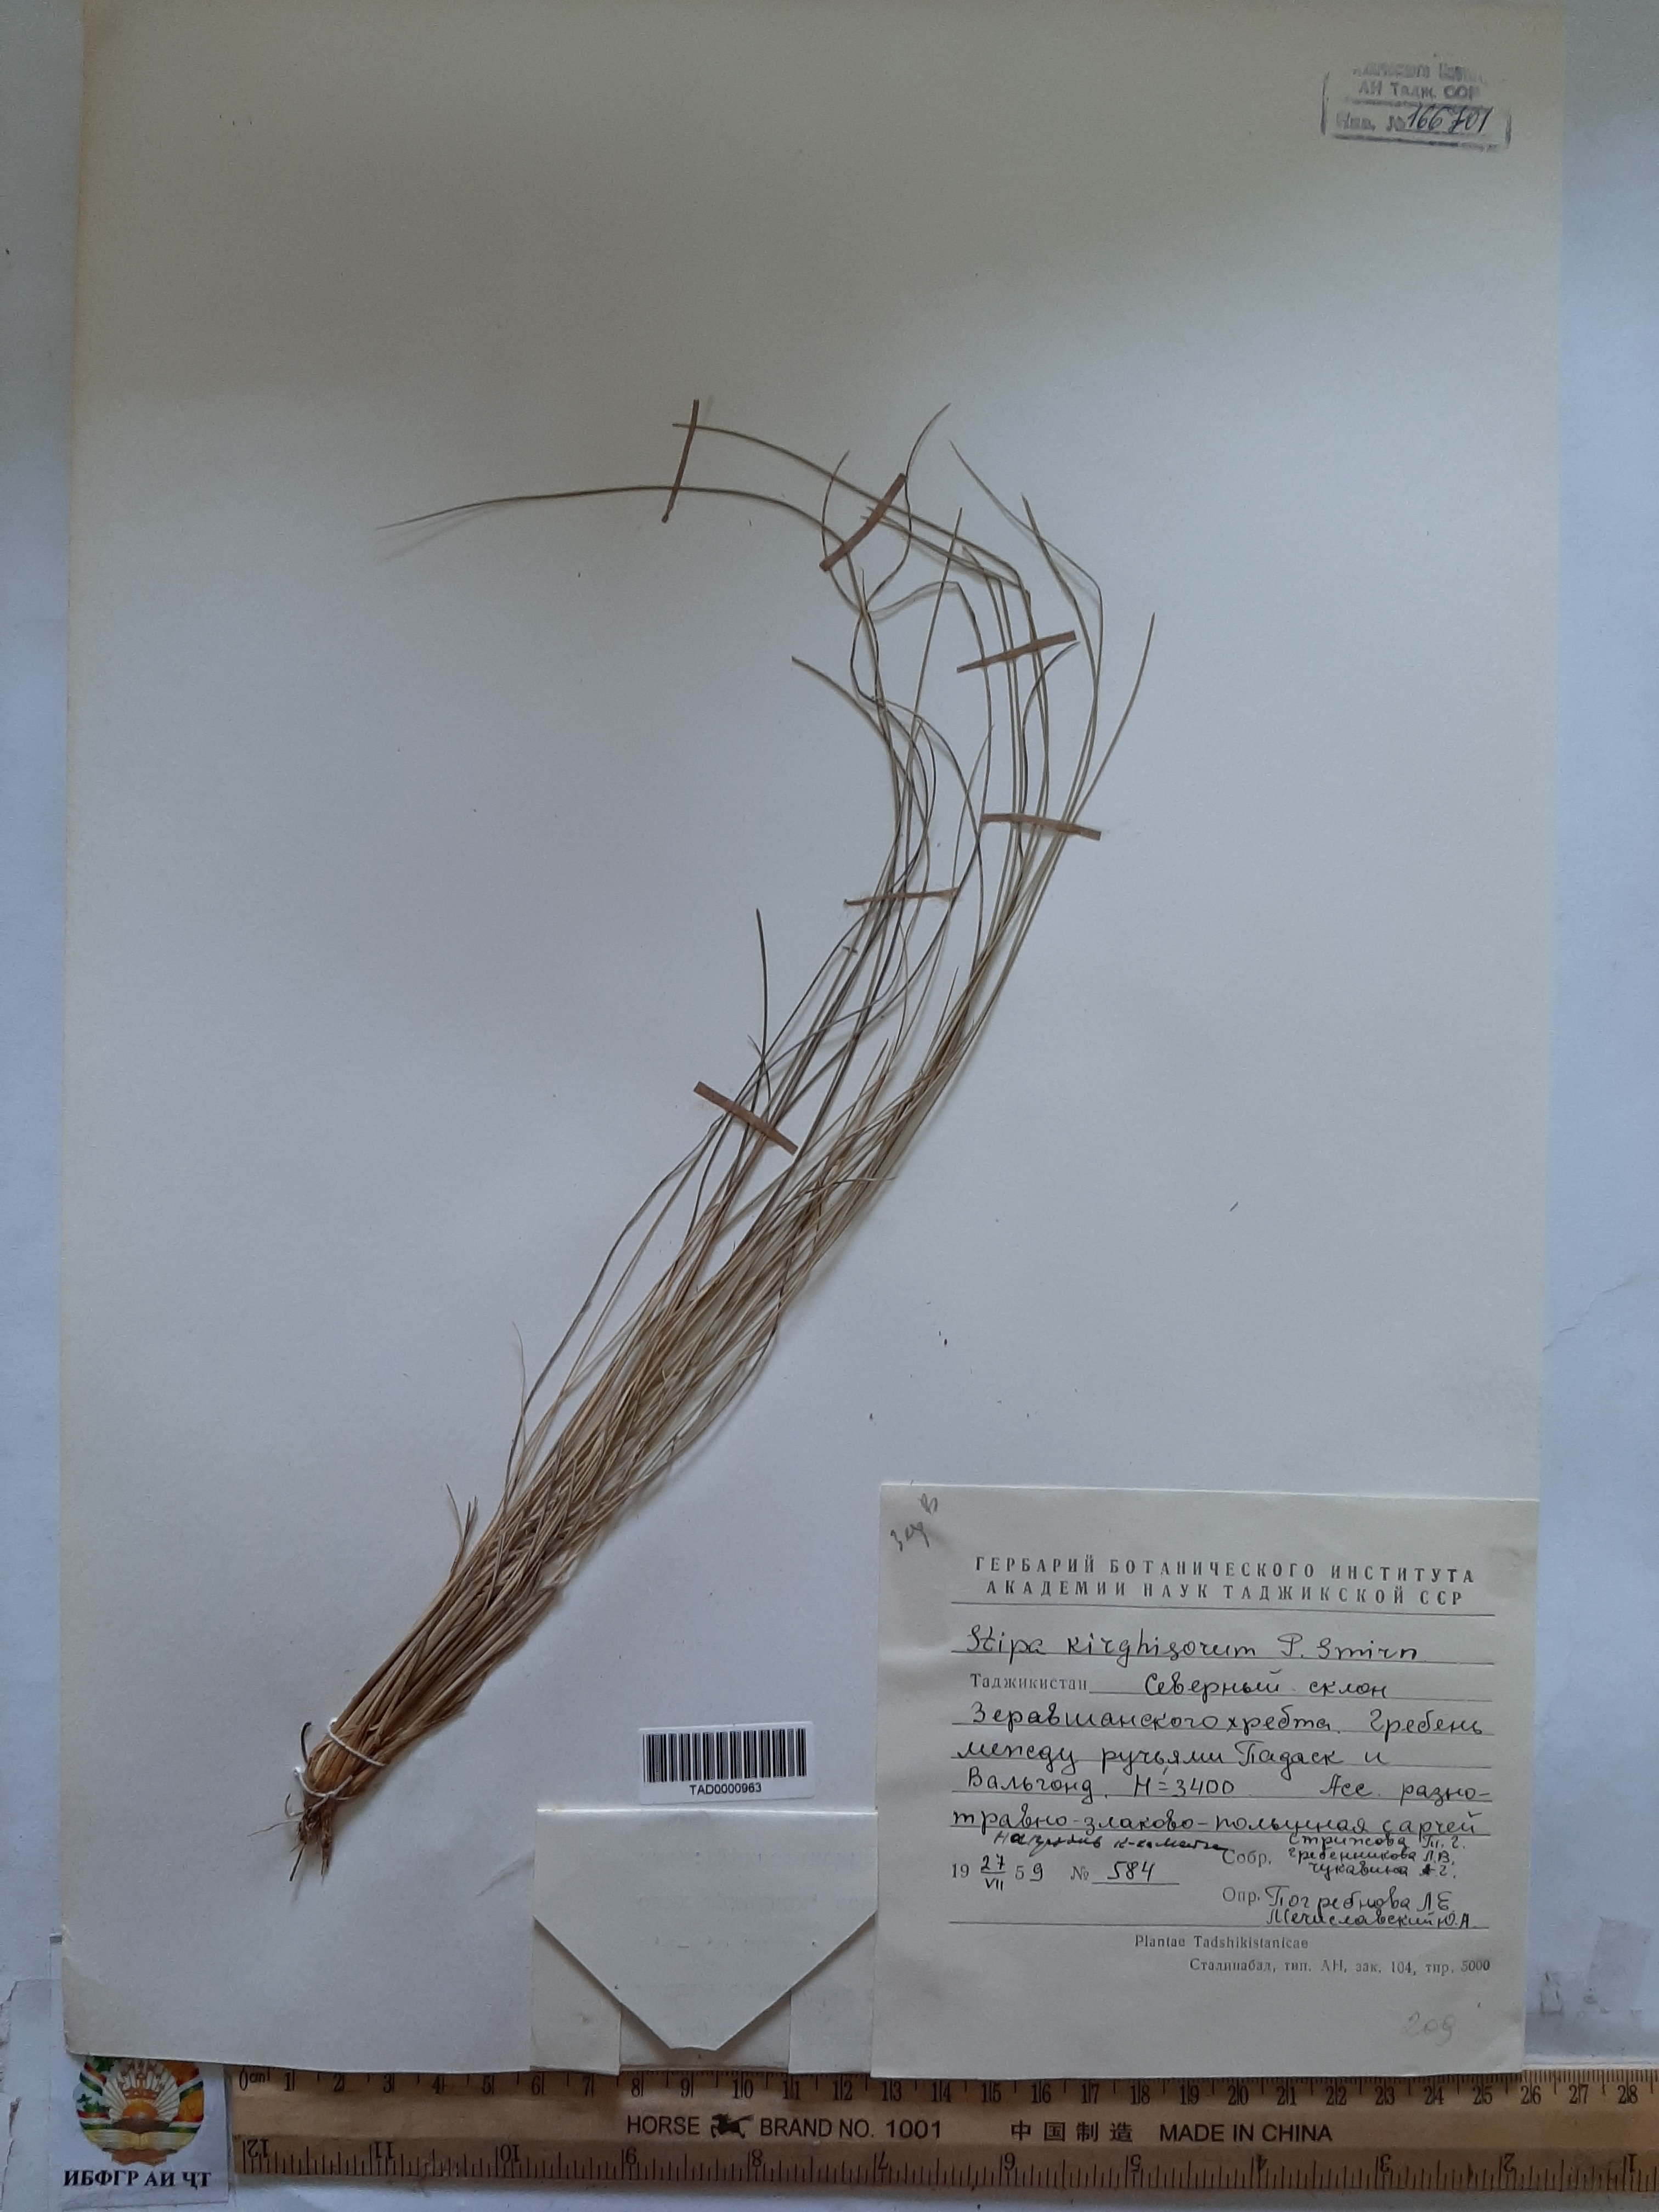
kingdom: Plantae
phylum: Tracheophyta
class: Liliopsida
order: Poales
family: Poaceae
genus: Stipa
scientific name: Stipa kirghisorum
